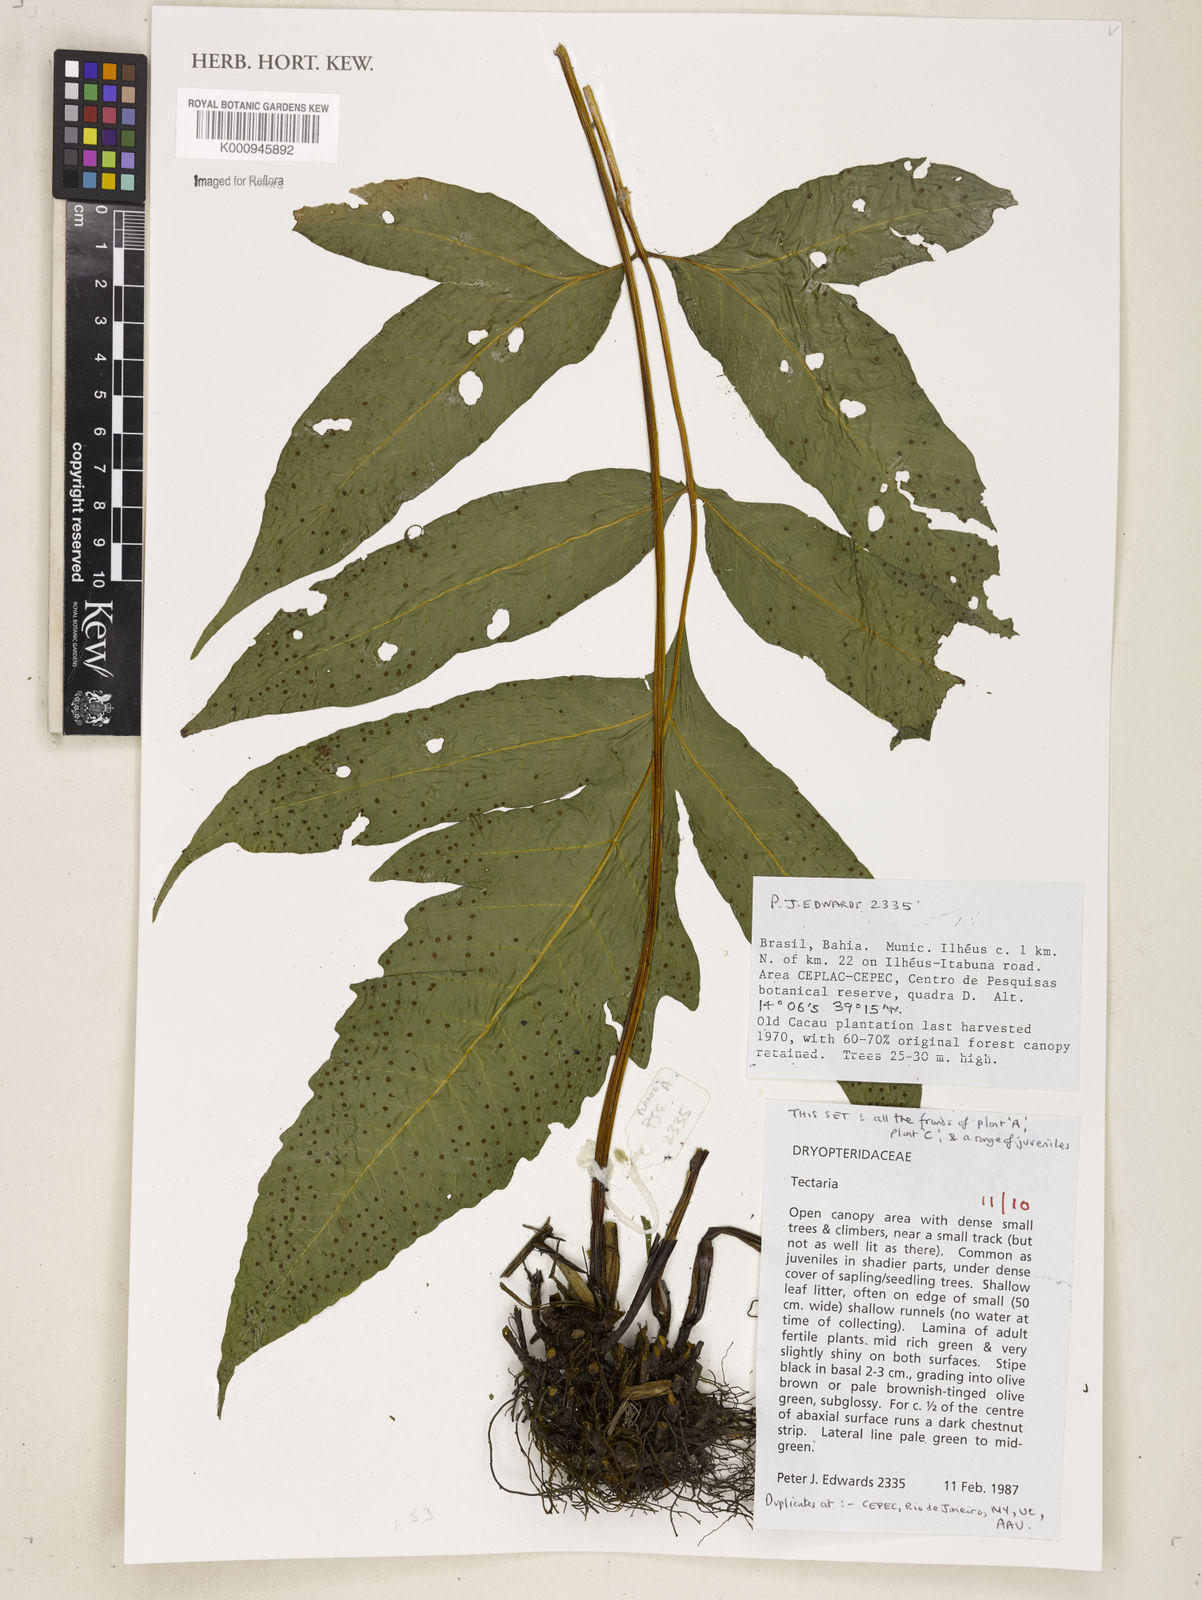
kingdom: Plantae
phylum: Tracheophyta
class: Polypodiopsida
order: Polypodiales
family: Tectariaceae
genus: Tectaria
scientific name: Tectaria
